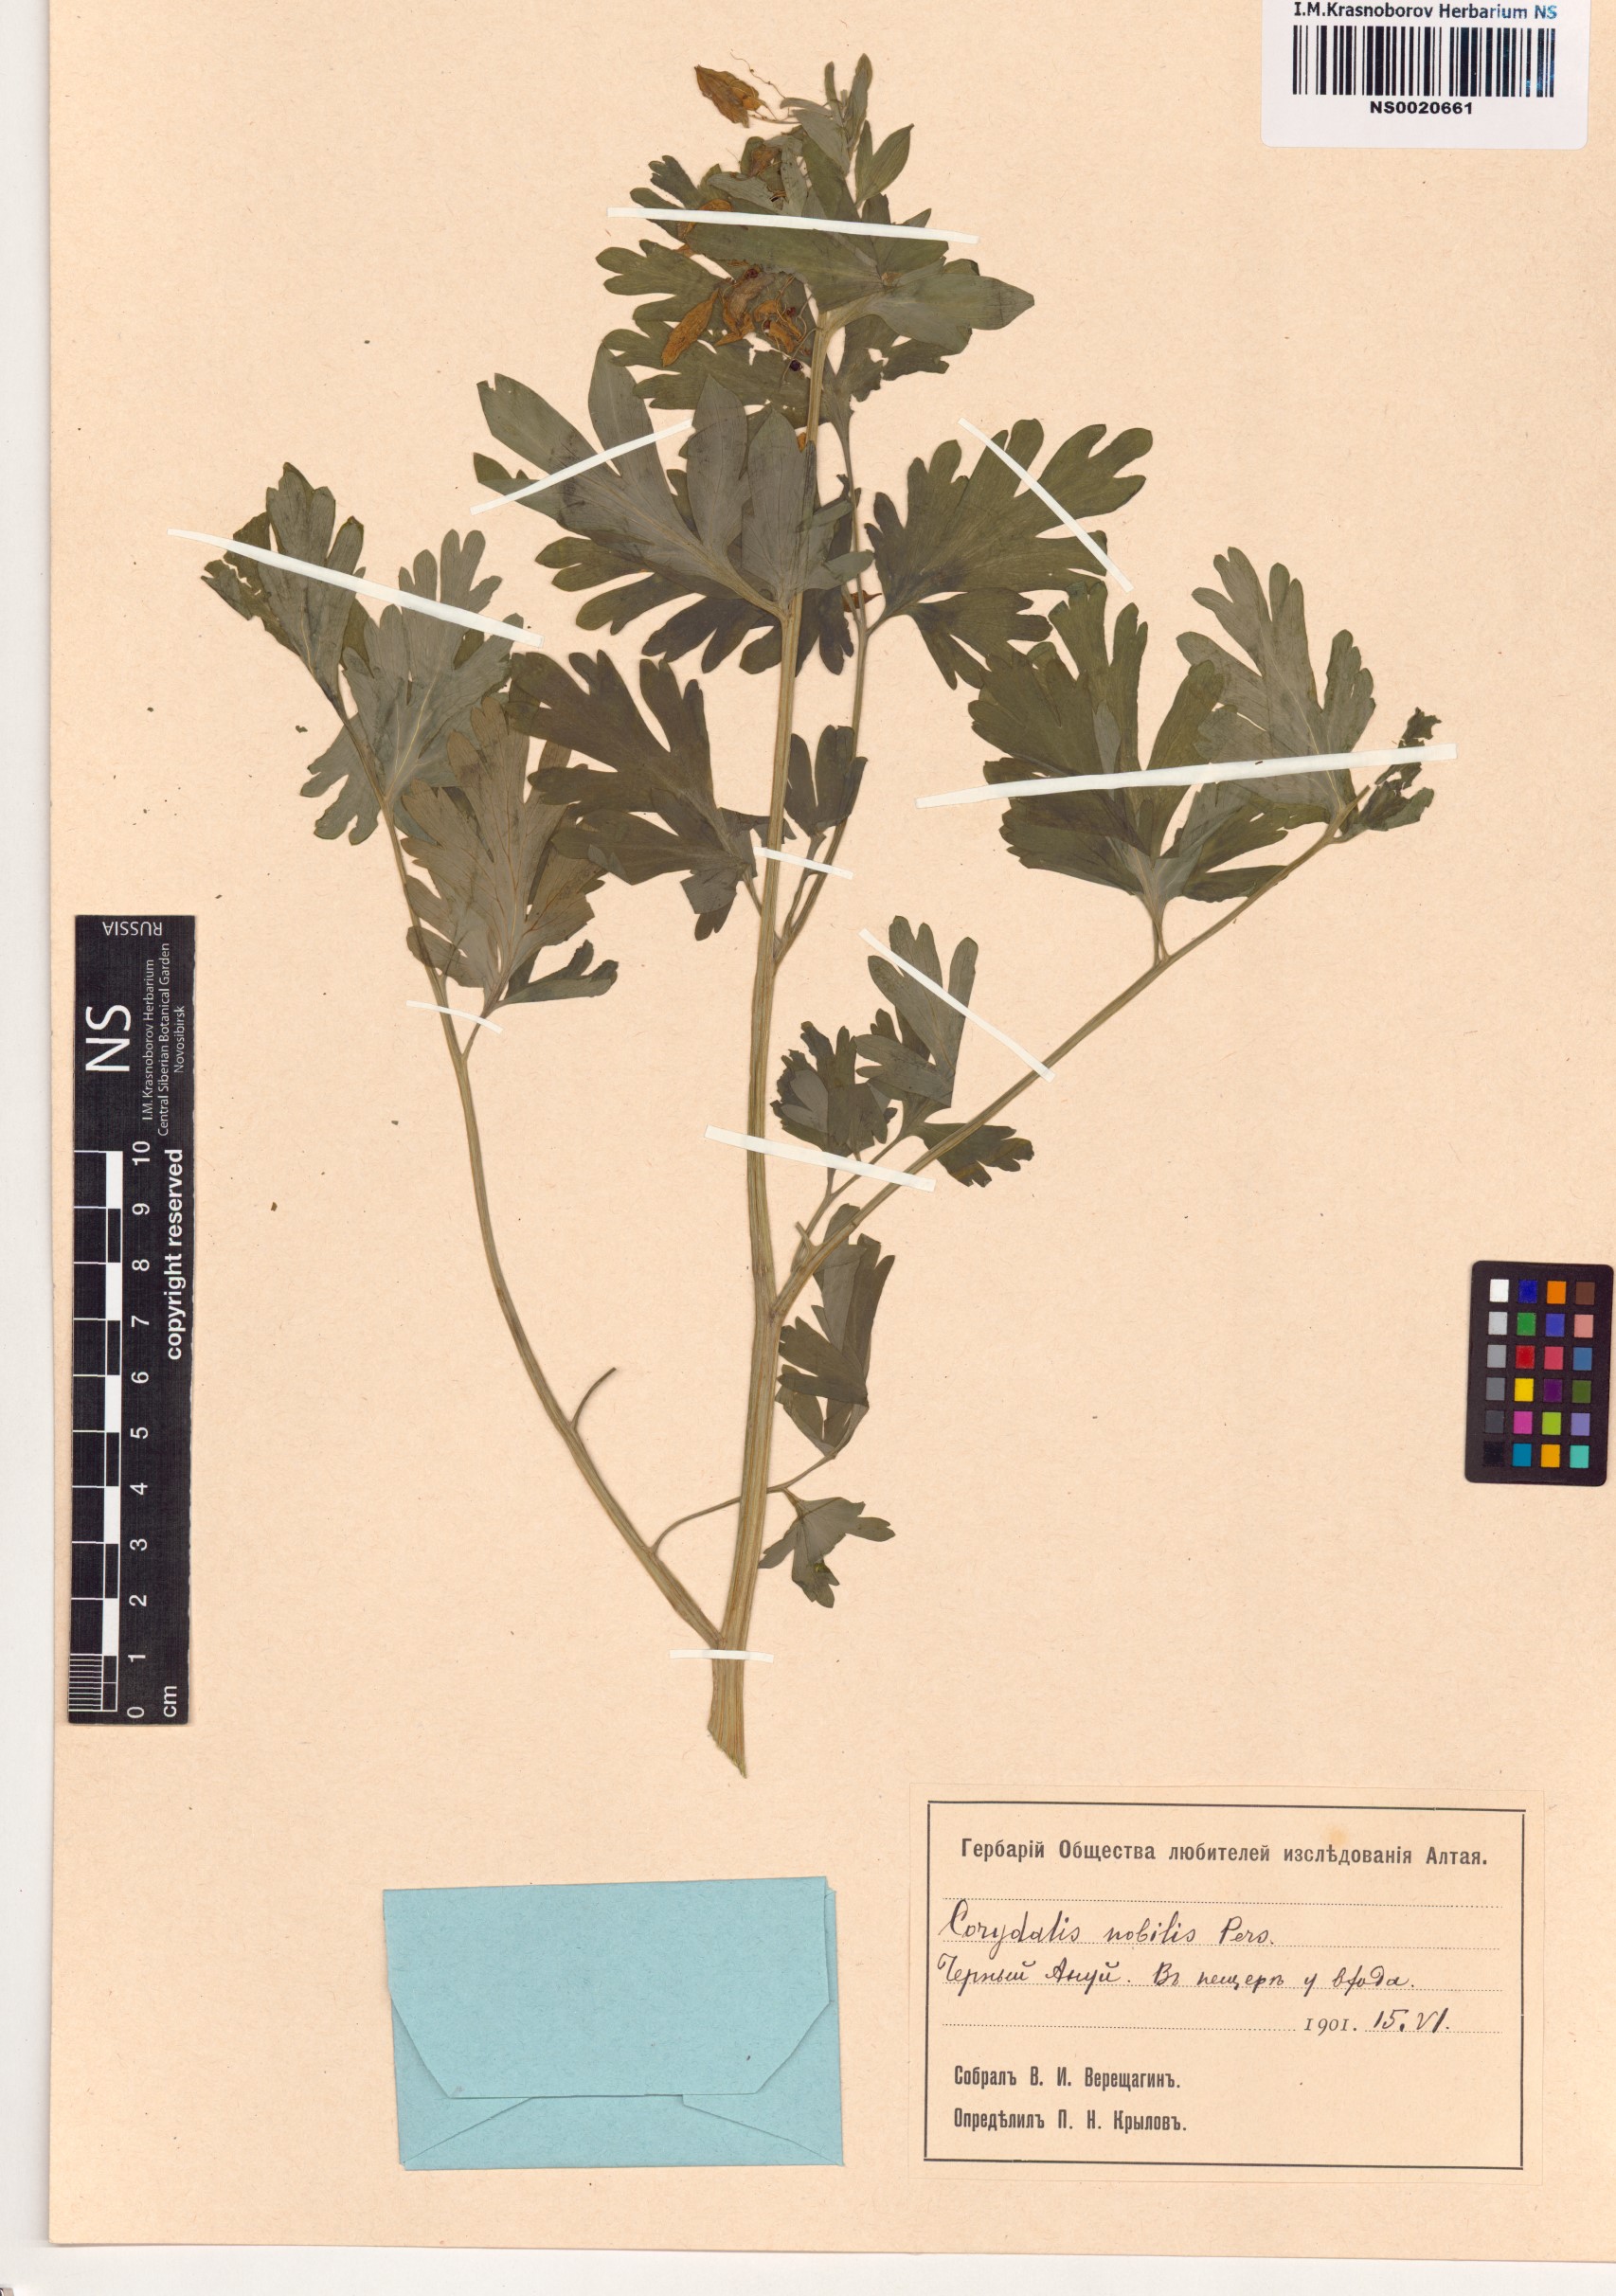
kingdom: Plantae
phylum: Tracheophyta
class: Magnoliopsida
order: Ranunculales
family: Papaveraceae
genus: Corydalis
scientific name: Corydalis nobilis
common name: Siberian corydalis
